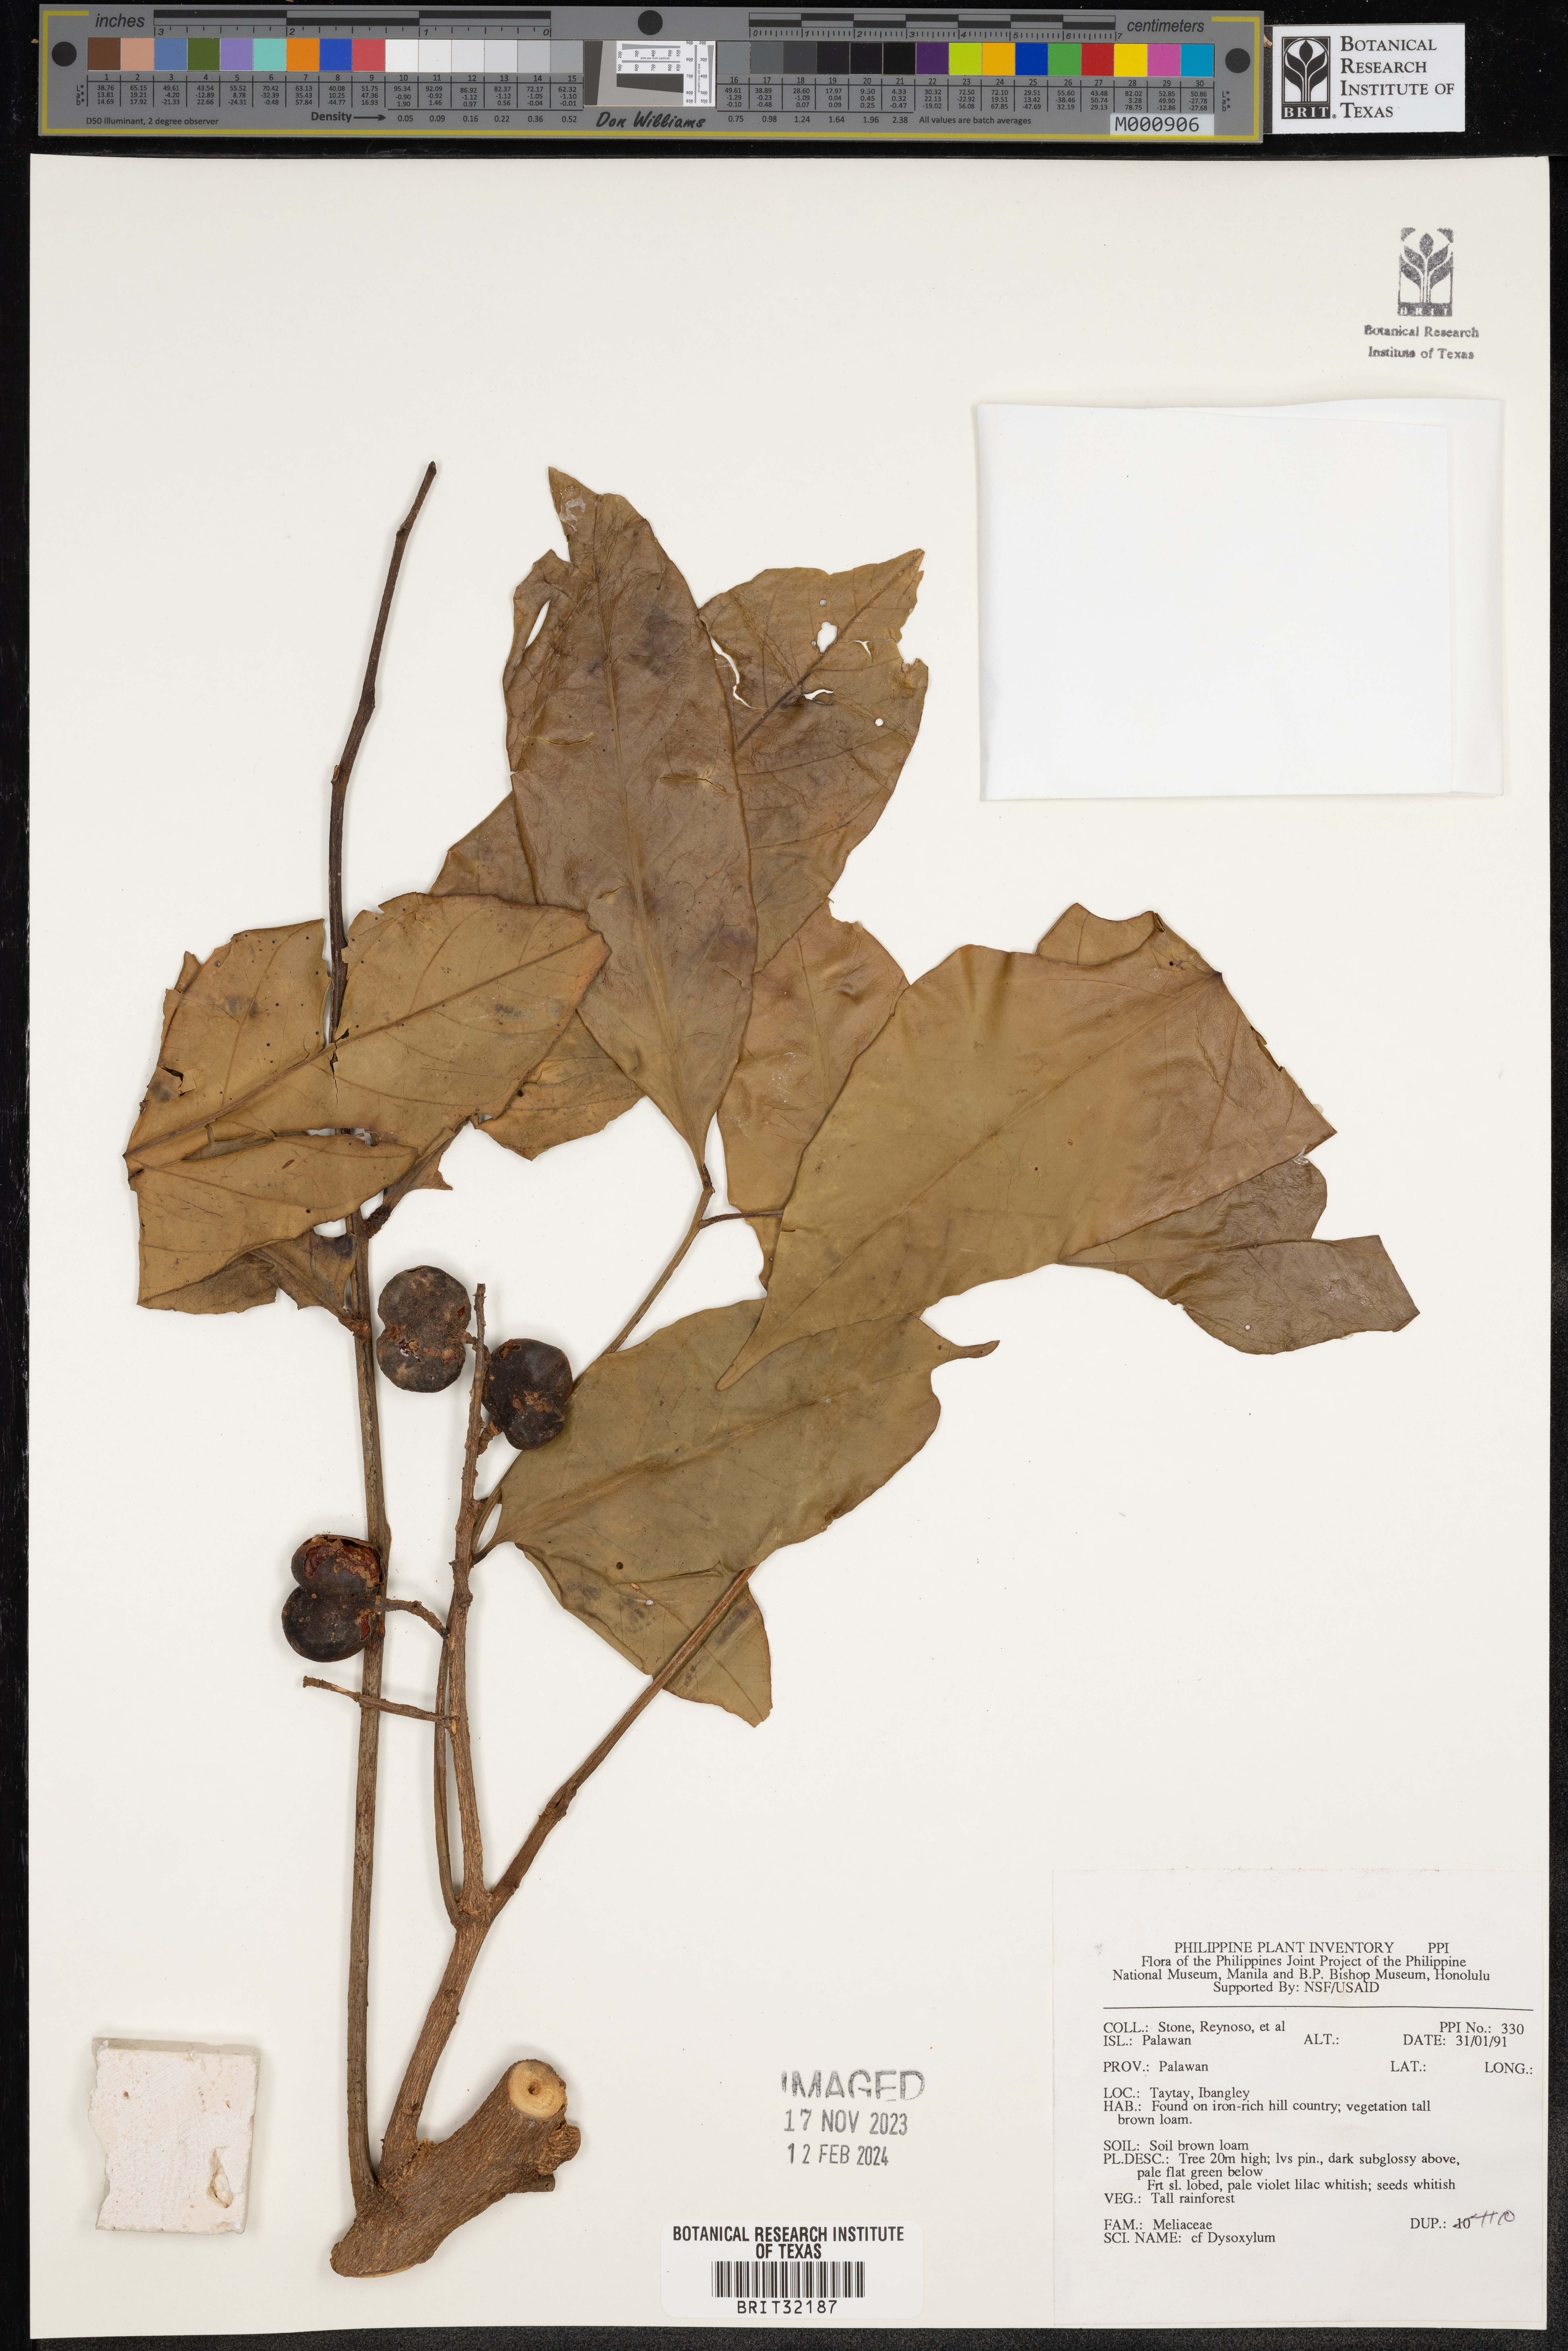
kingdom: Plantae
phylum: Tracheophyta
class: Magnoliopsida
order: Sapindales
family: Meliaceae
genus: Dysoxylum
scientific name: Dysoxylum
